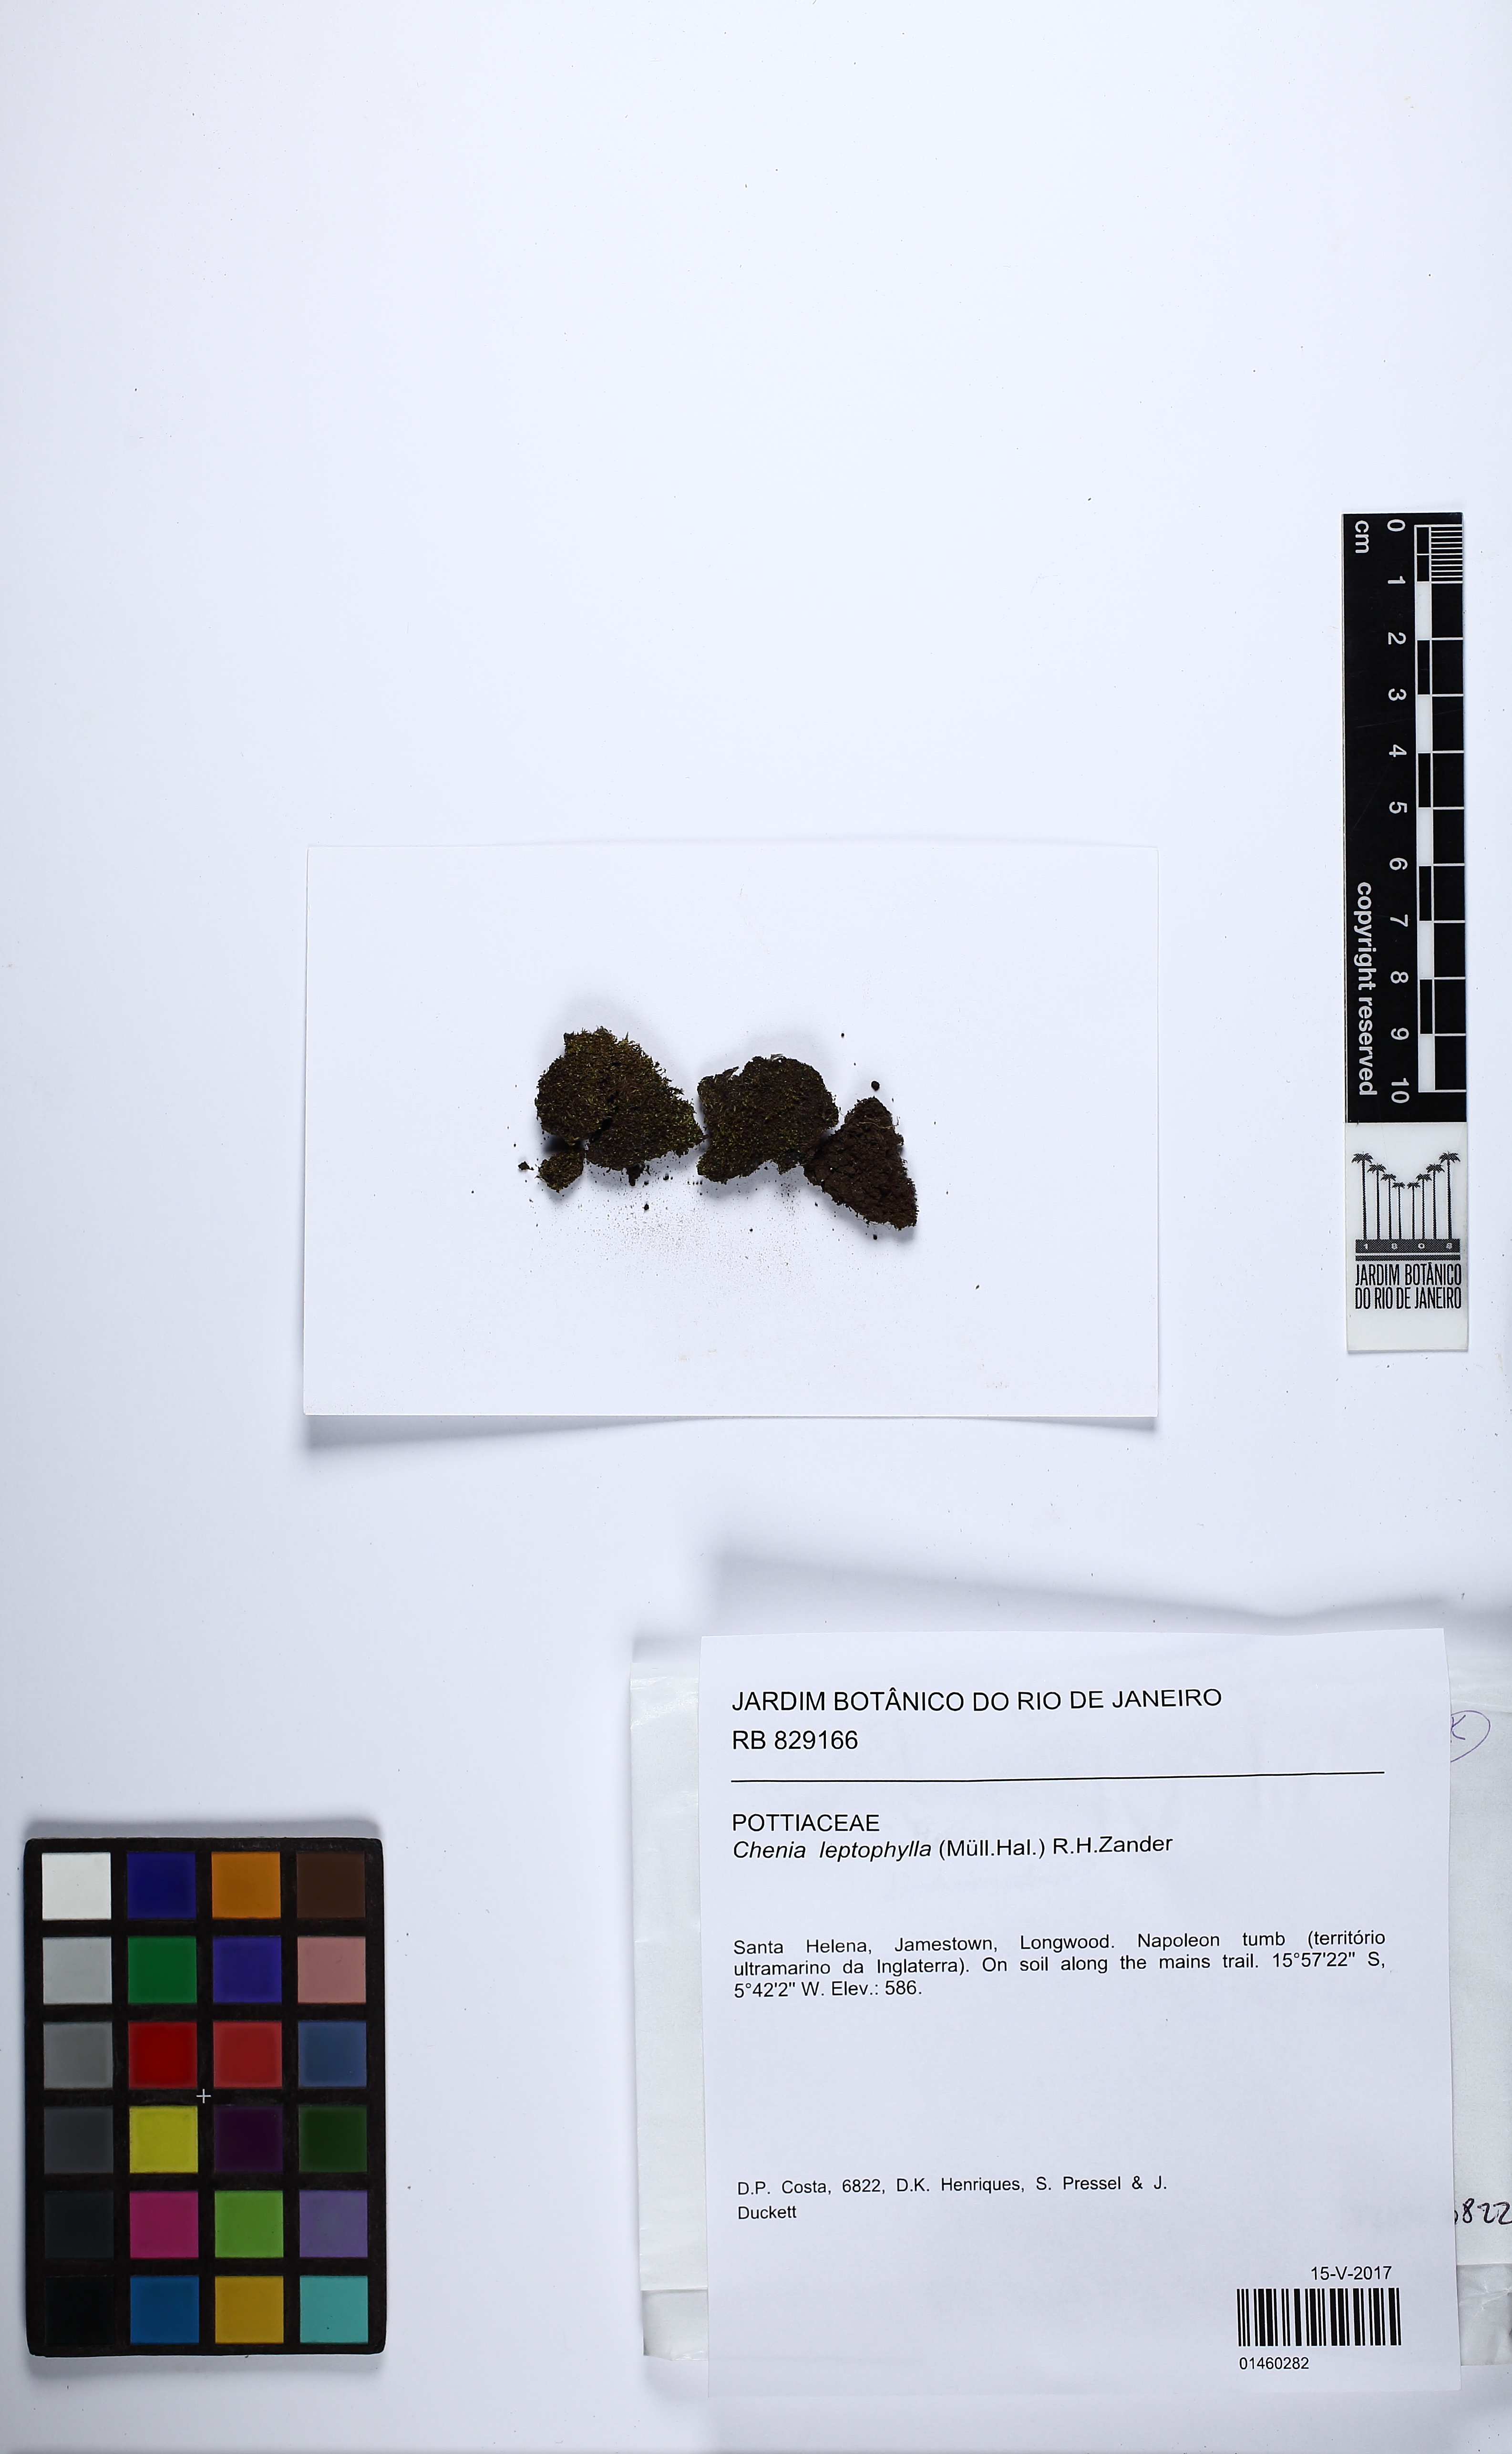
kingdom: Plantae
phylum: Bryophyta
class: Bryopsida
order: Pottiales
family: Pottiaceae
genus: Chenia
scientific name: Chenia leptophylla
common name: Vectis moss
